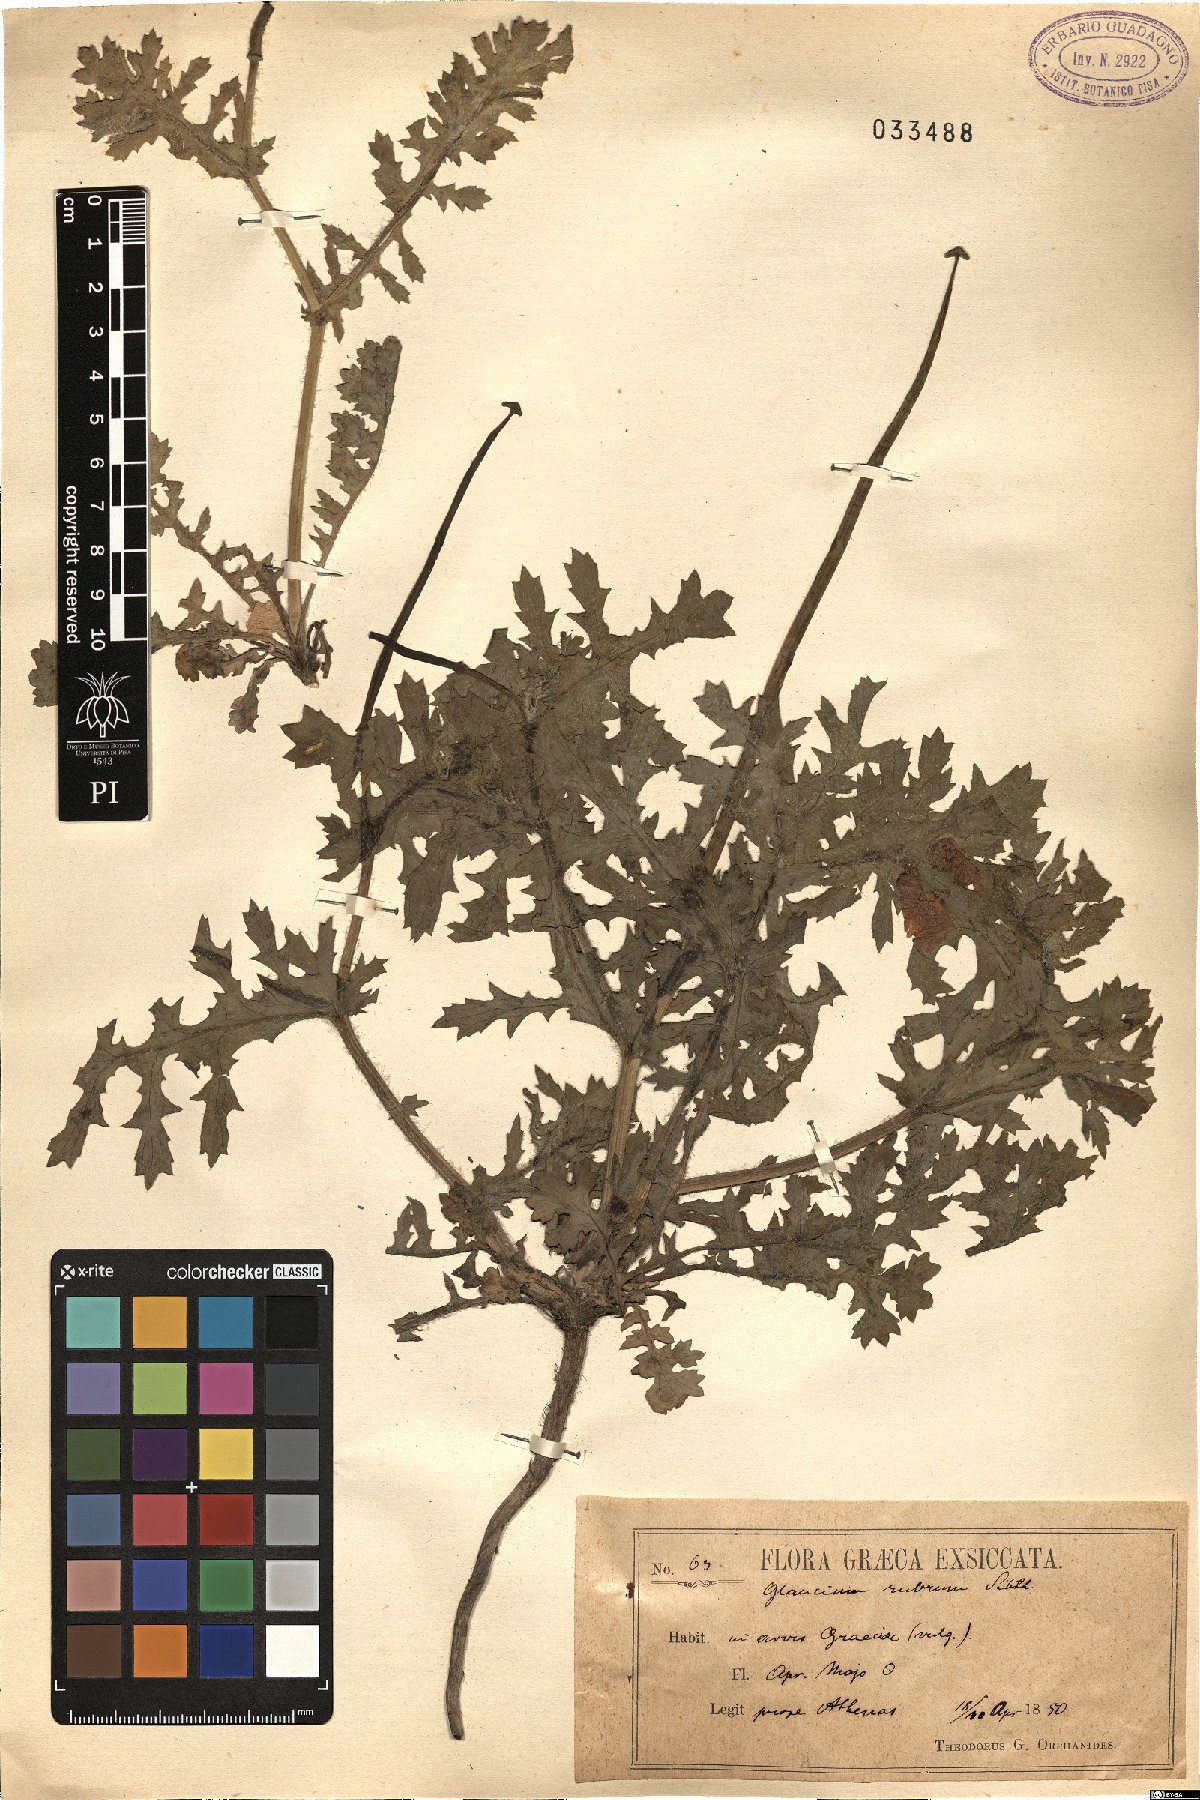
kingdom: Plantae
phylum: Tracheophyta
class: Magnoliopsida
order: Ranunculales
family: Papaveraceae
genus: Glaucium
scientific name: Glaucium corniculatum
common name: Red horned-poppy
